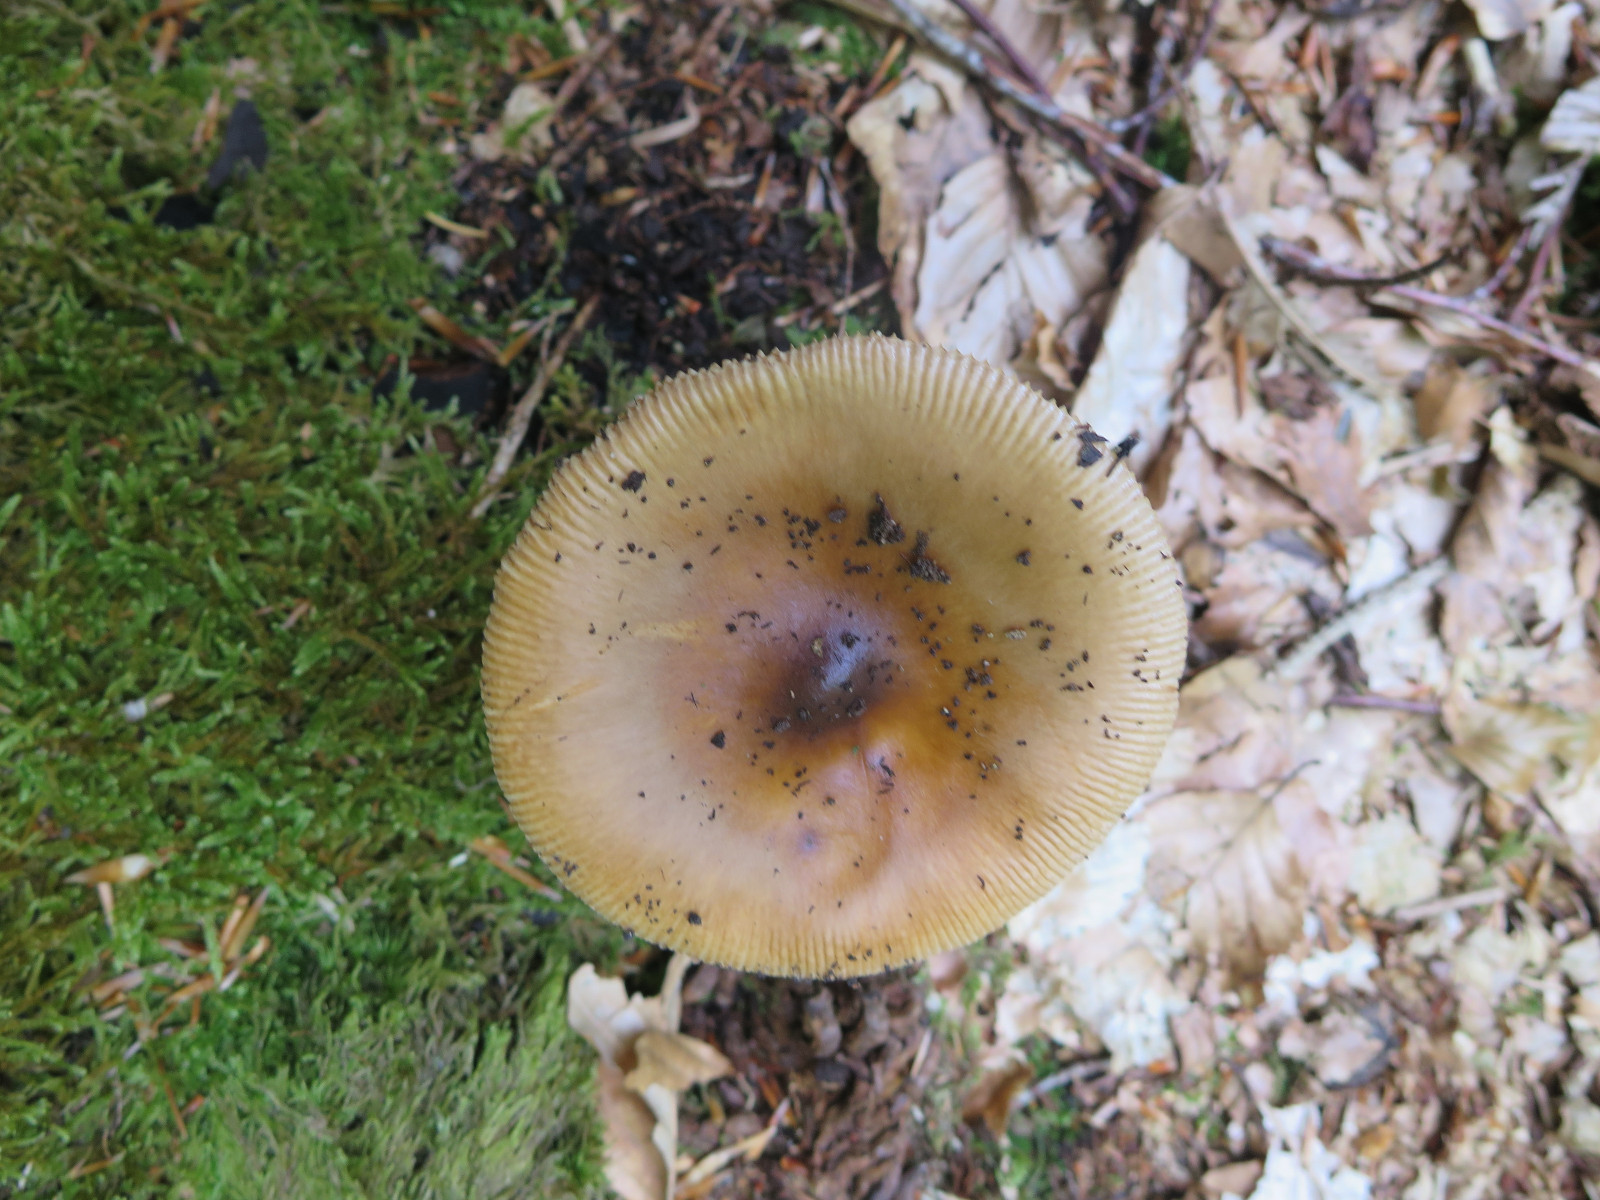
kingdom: Fungi
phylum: Basidiomycota
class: Agaricomycetes
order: Agaricales
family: Amanitaceae
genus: Amanita
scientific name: Amanita fulva
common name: brun kam-fluesvamp
